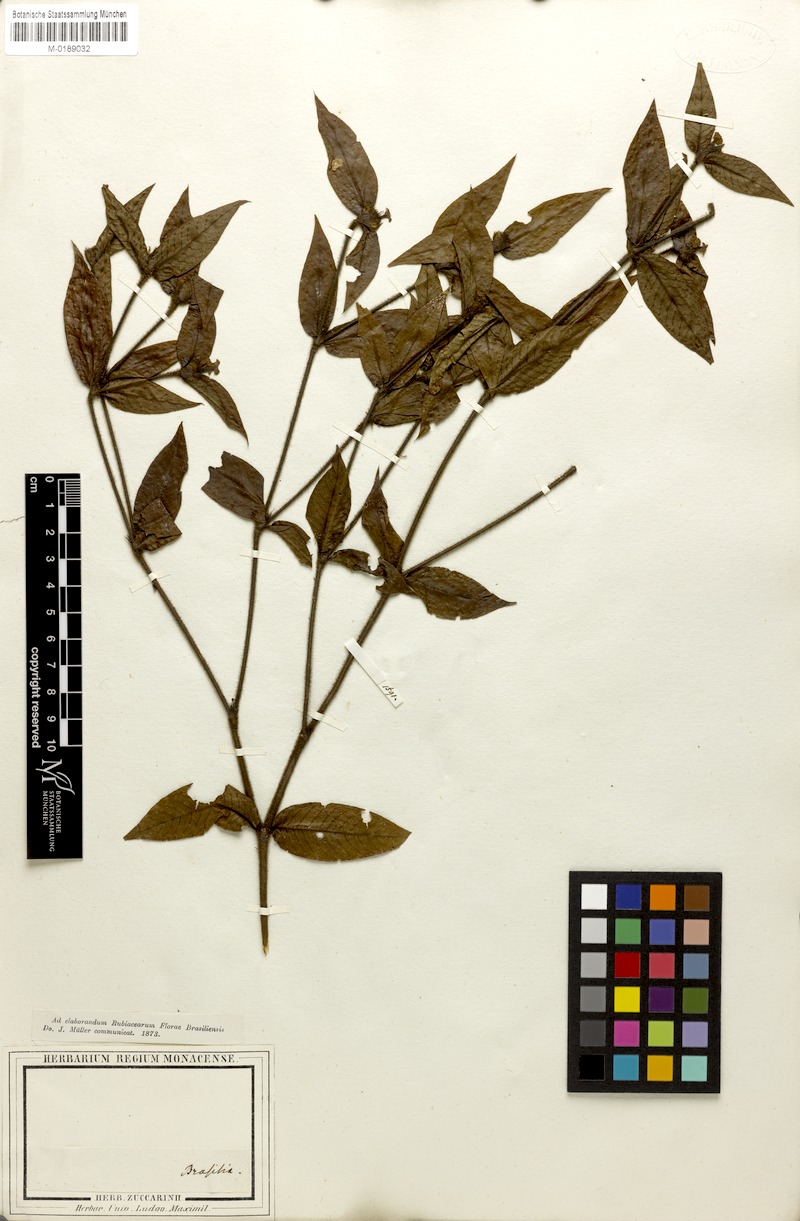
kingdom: Plantae
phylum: Tracheophyta
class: Magnoliopsida
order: Gentianales
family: Rubiaceae
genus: Palicourea
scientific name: Palicourea iodotricha
